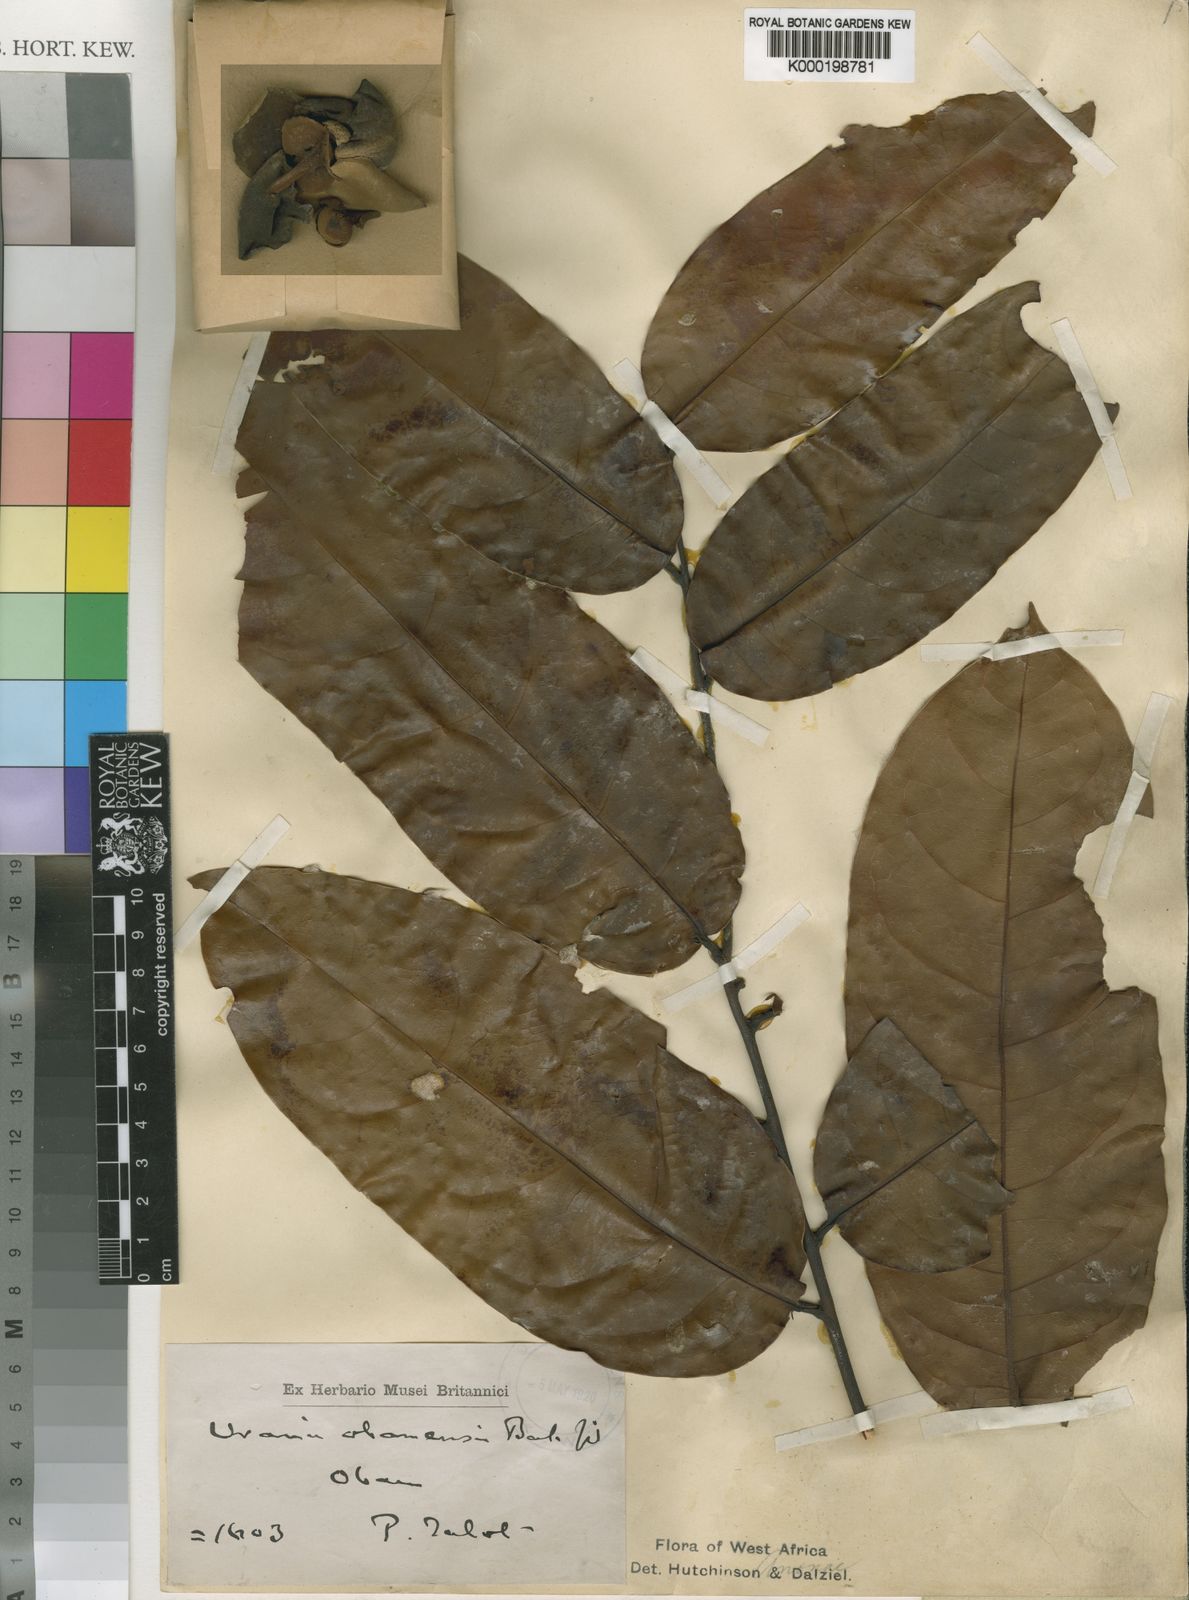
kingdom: Plantae
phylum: Tracheophyta
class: Magnoliopsida
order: Magnoliales
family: Annonaceae
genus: Uvaria
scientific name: Uvaria obanensis
